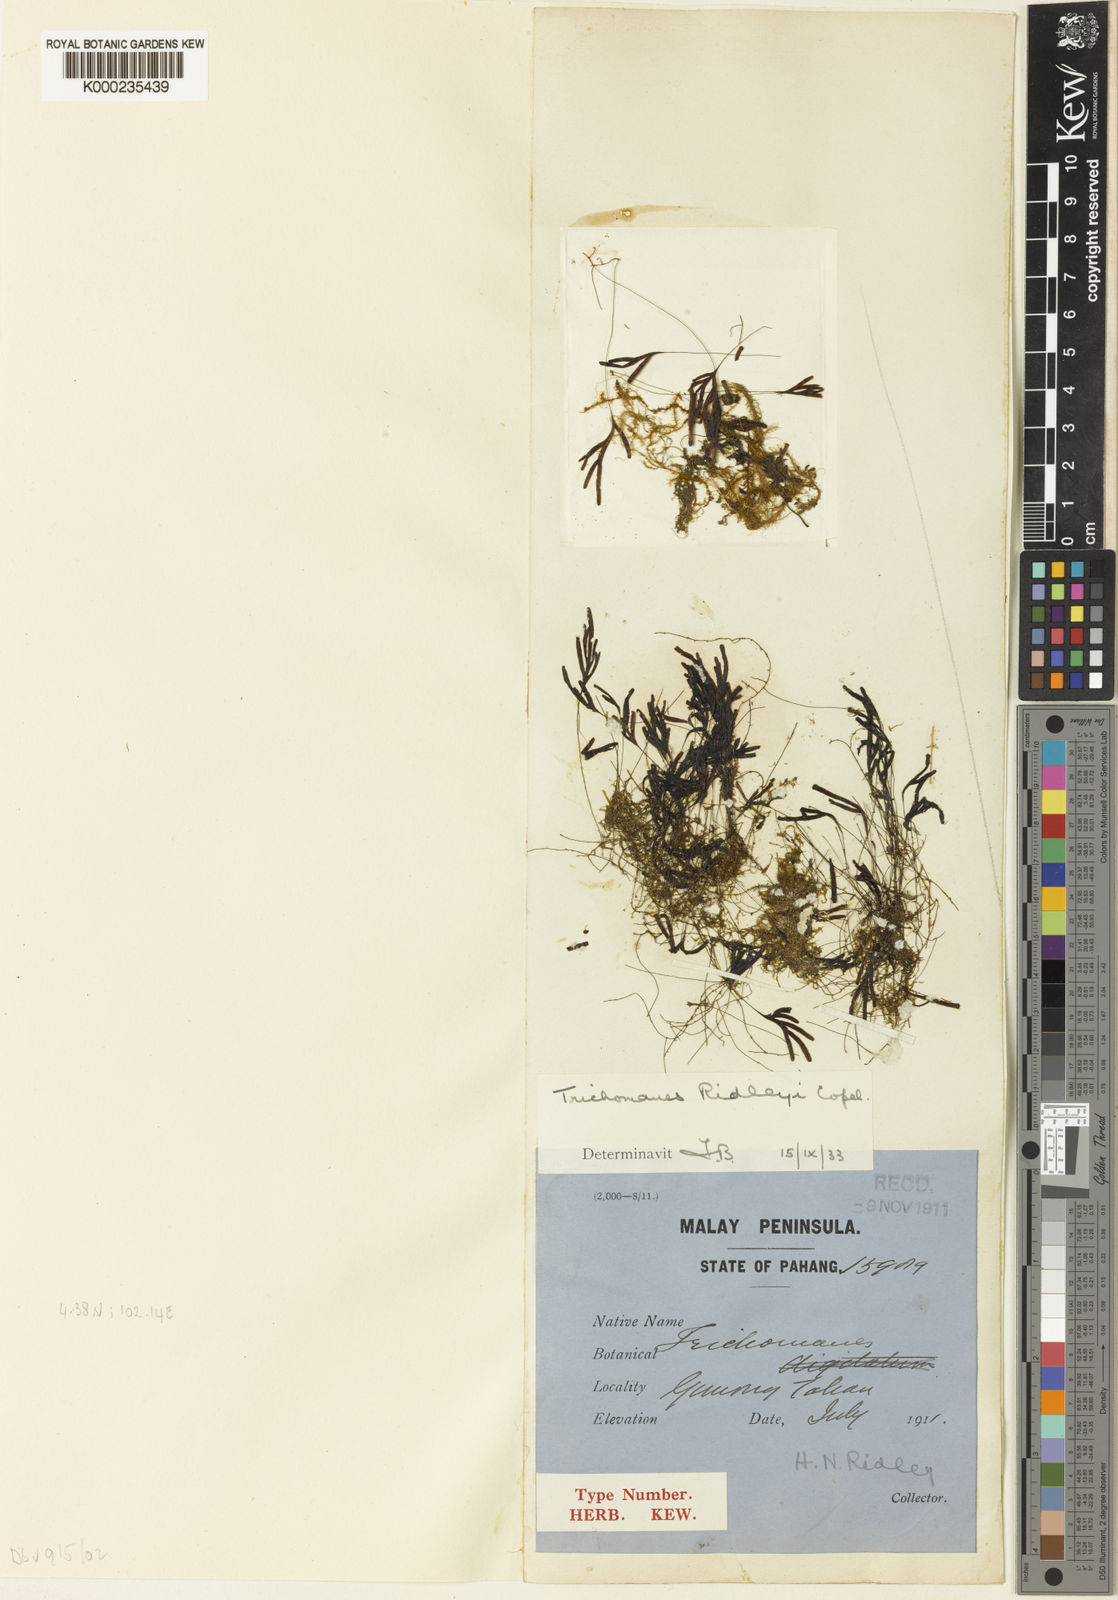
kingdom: Plantae
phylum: Tracheophyta
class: Polypodiopsida
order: Hymenophyllales
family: Hymenophyllaceae
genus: Hymenophyllum
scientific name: Hymenophyllum palmatifidum
